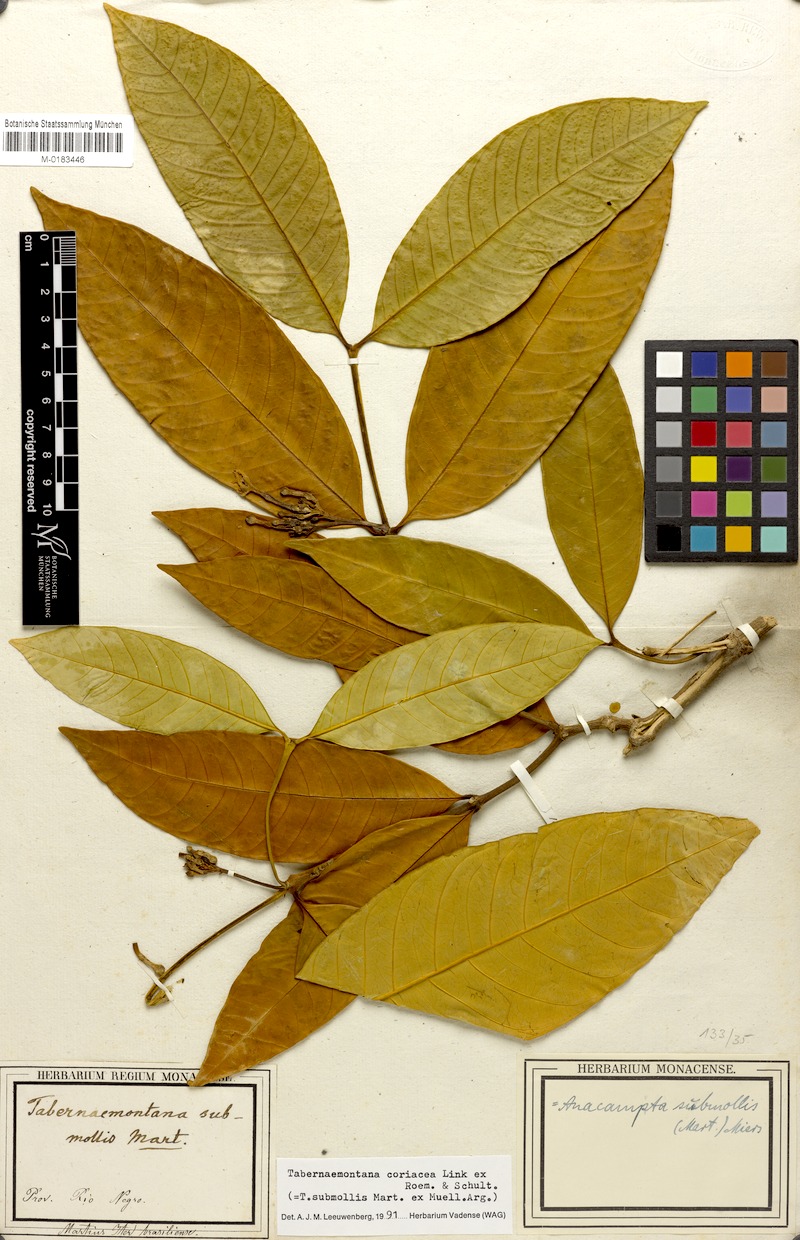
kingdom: Plantae
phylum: Tracheophyta
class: Magnoliopsida
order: Gentianales
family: Apocynaceae
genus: Tabernaemontana
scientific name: Tabernaemontana coriacea
